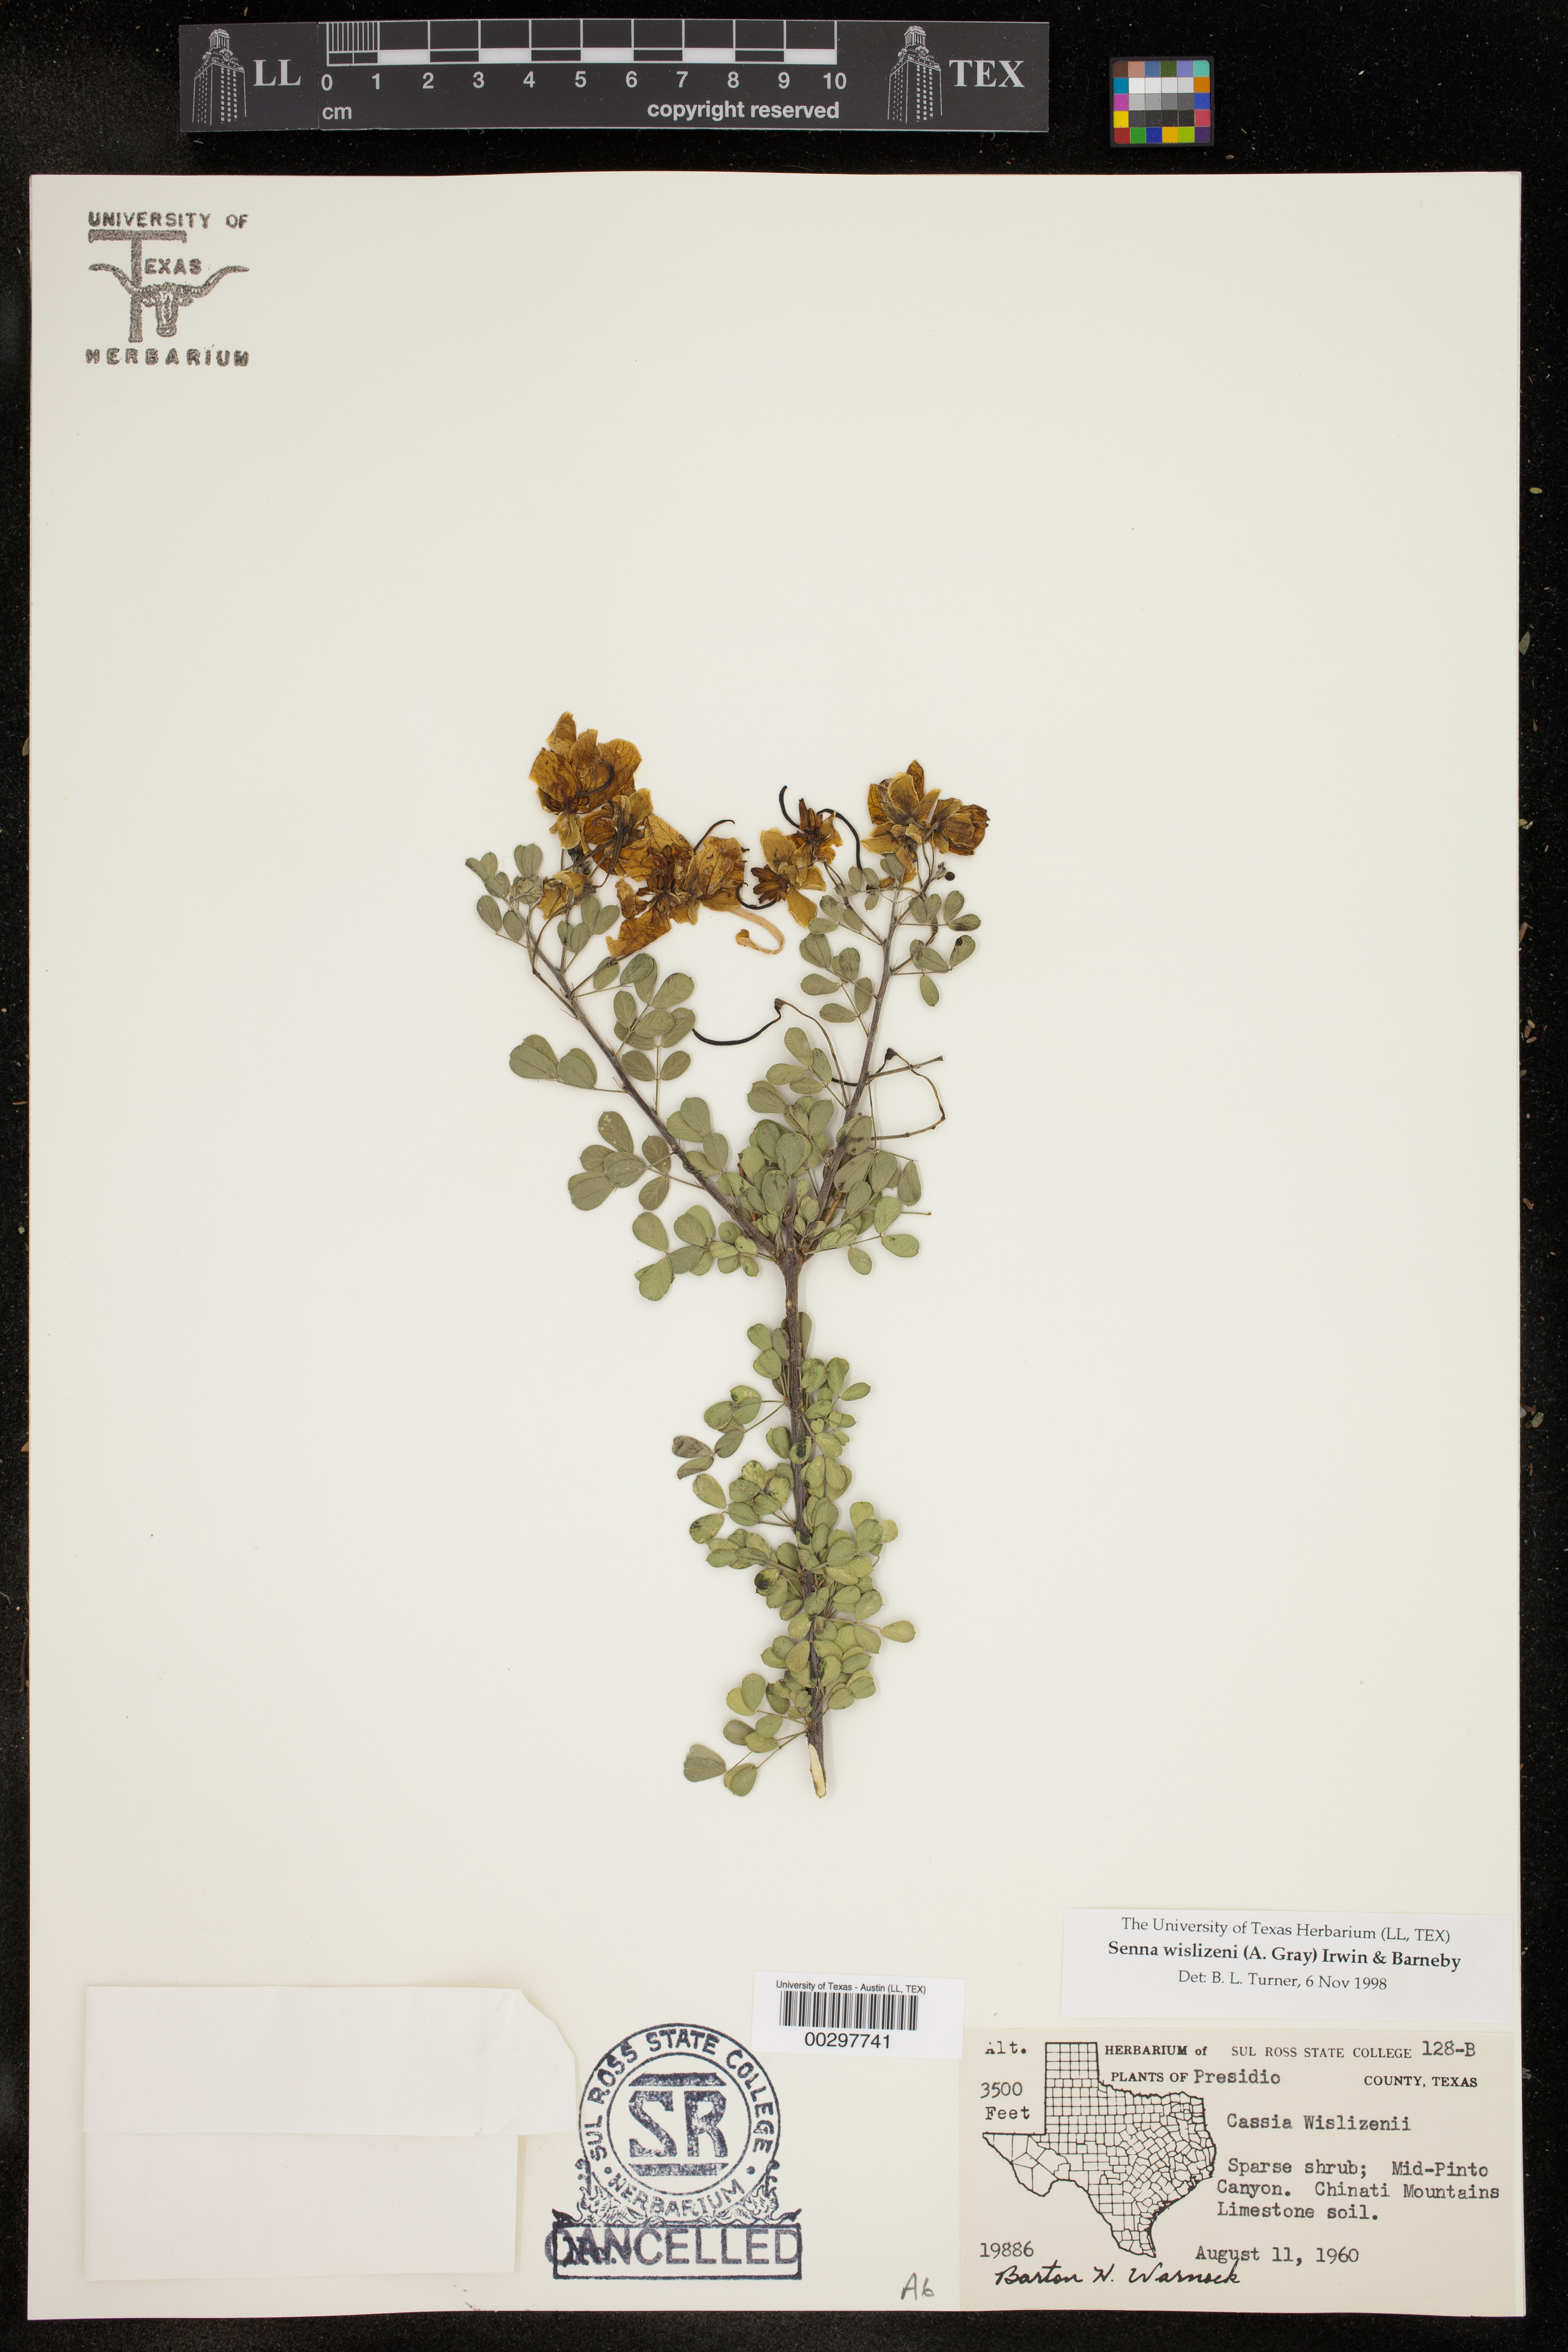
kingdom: Plantae
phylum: Tracheophyta
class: Magnoliopsida
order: Fabales
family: Fabaceae
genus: Senna
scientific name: Senna wislizeni
